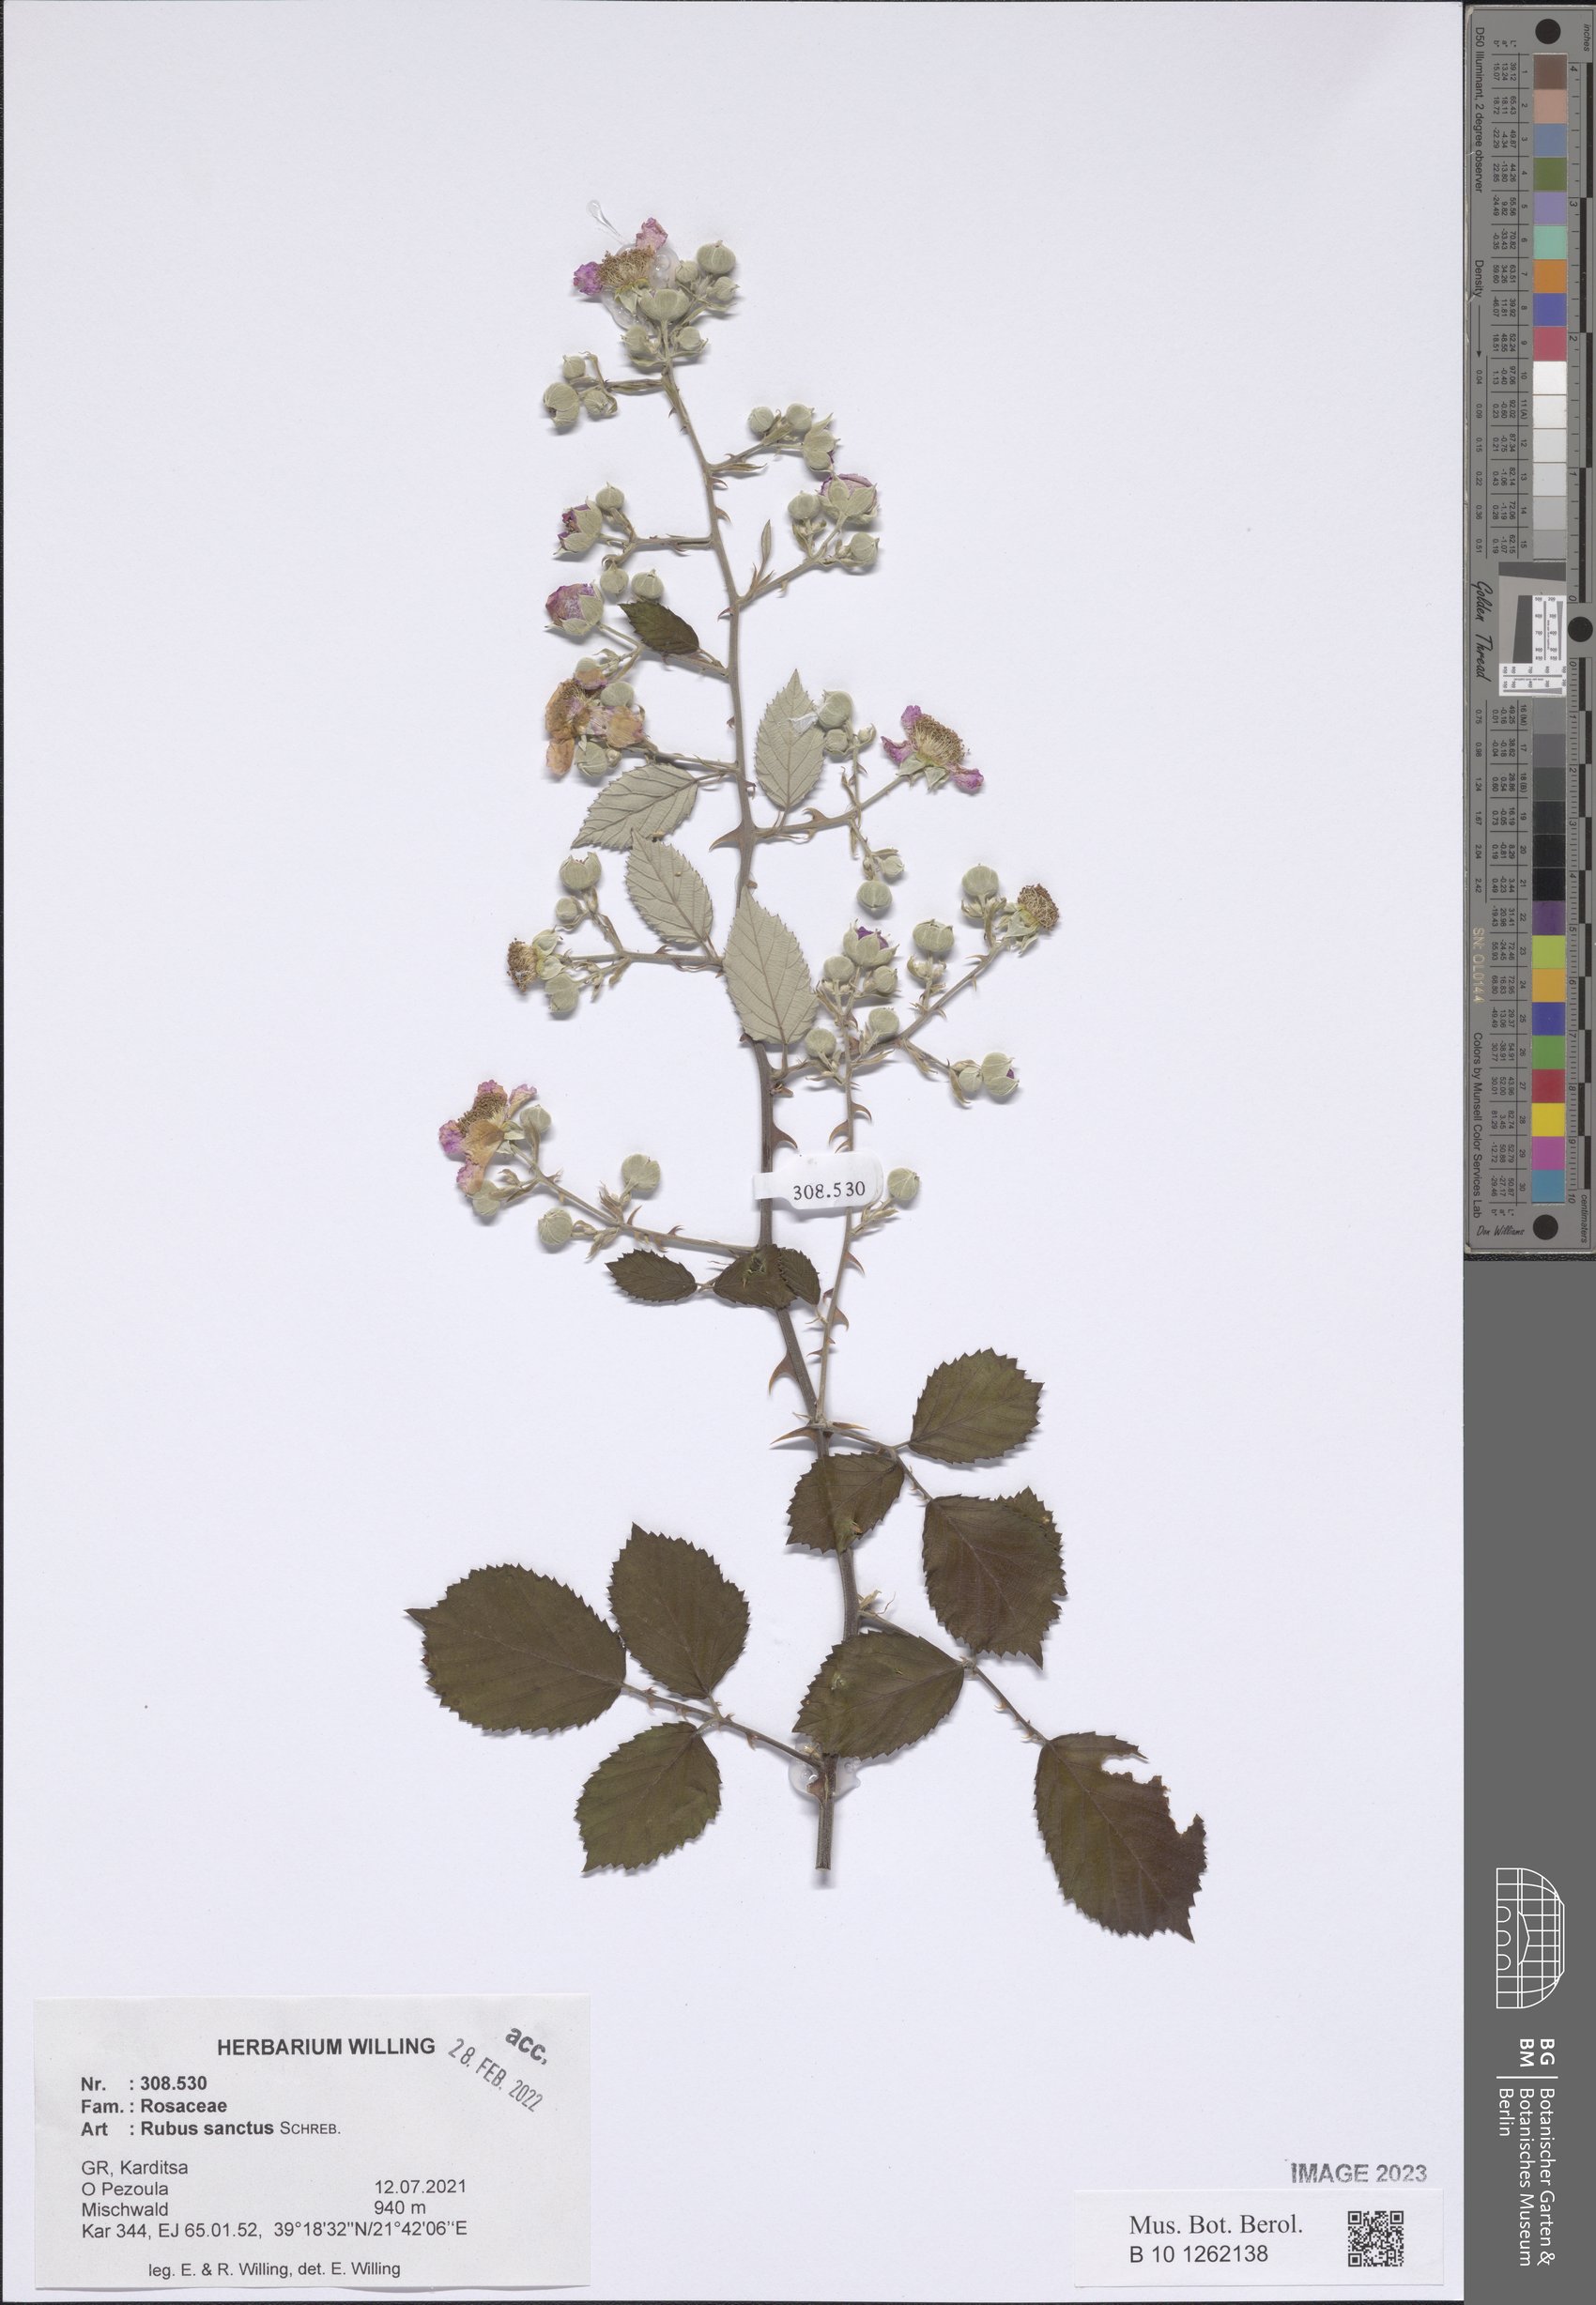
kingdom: Plantae
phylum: Tracheophyta
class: Magnoliopsida
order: Rosales
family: Rosaceae
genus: Rubus
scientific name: Rubus sanctus
